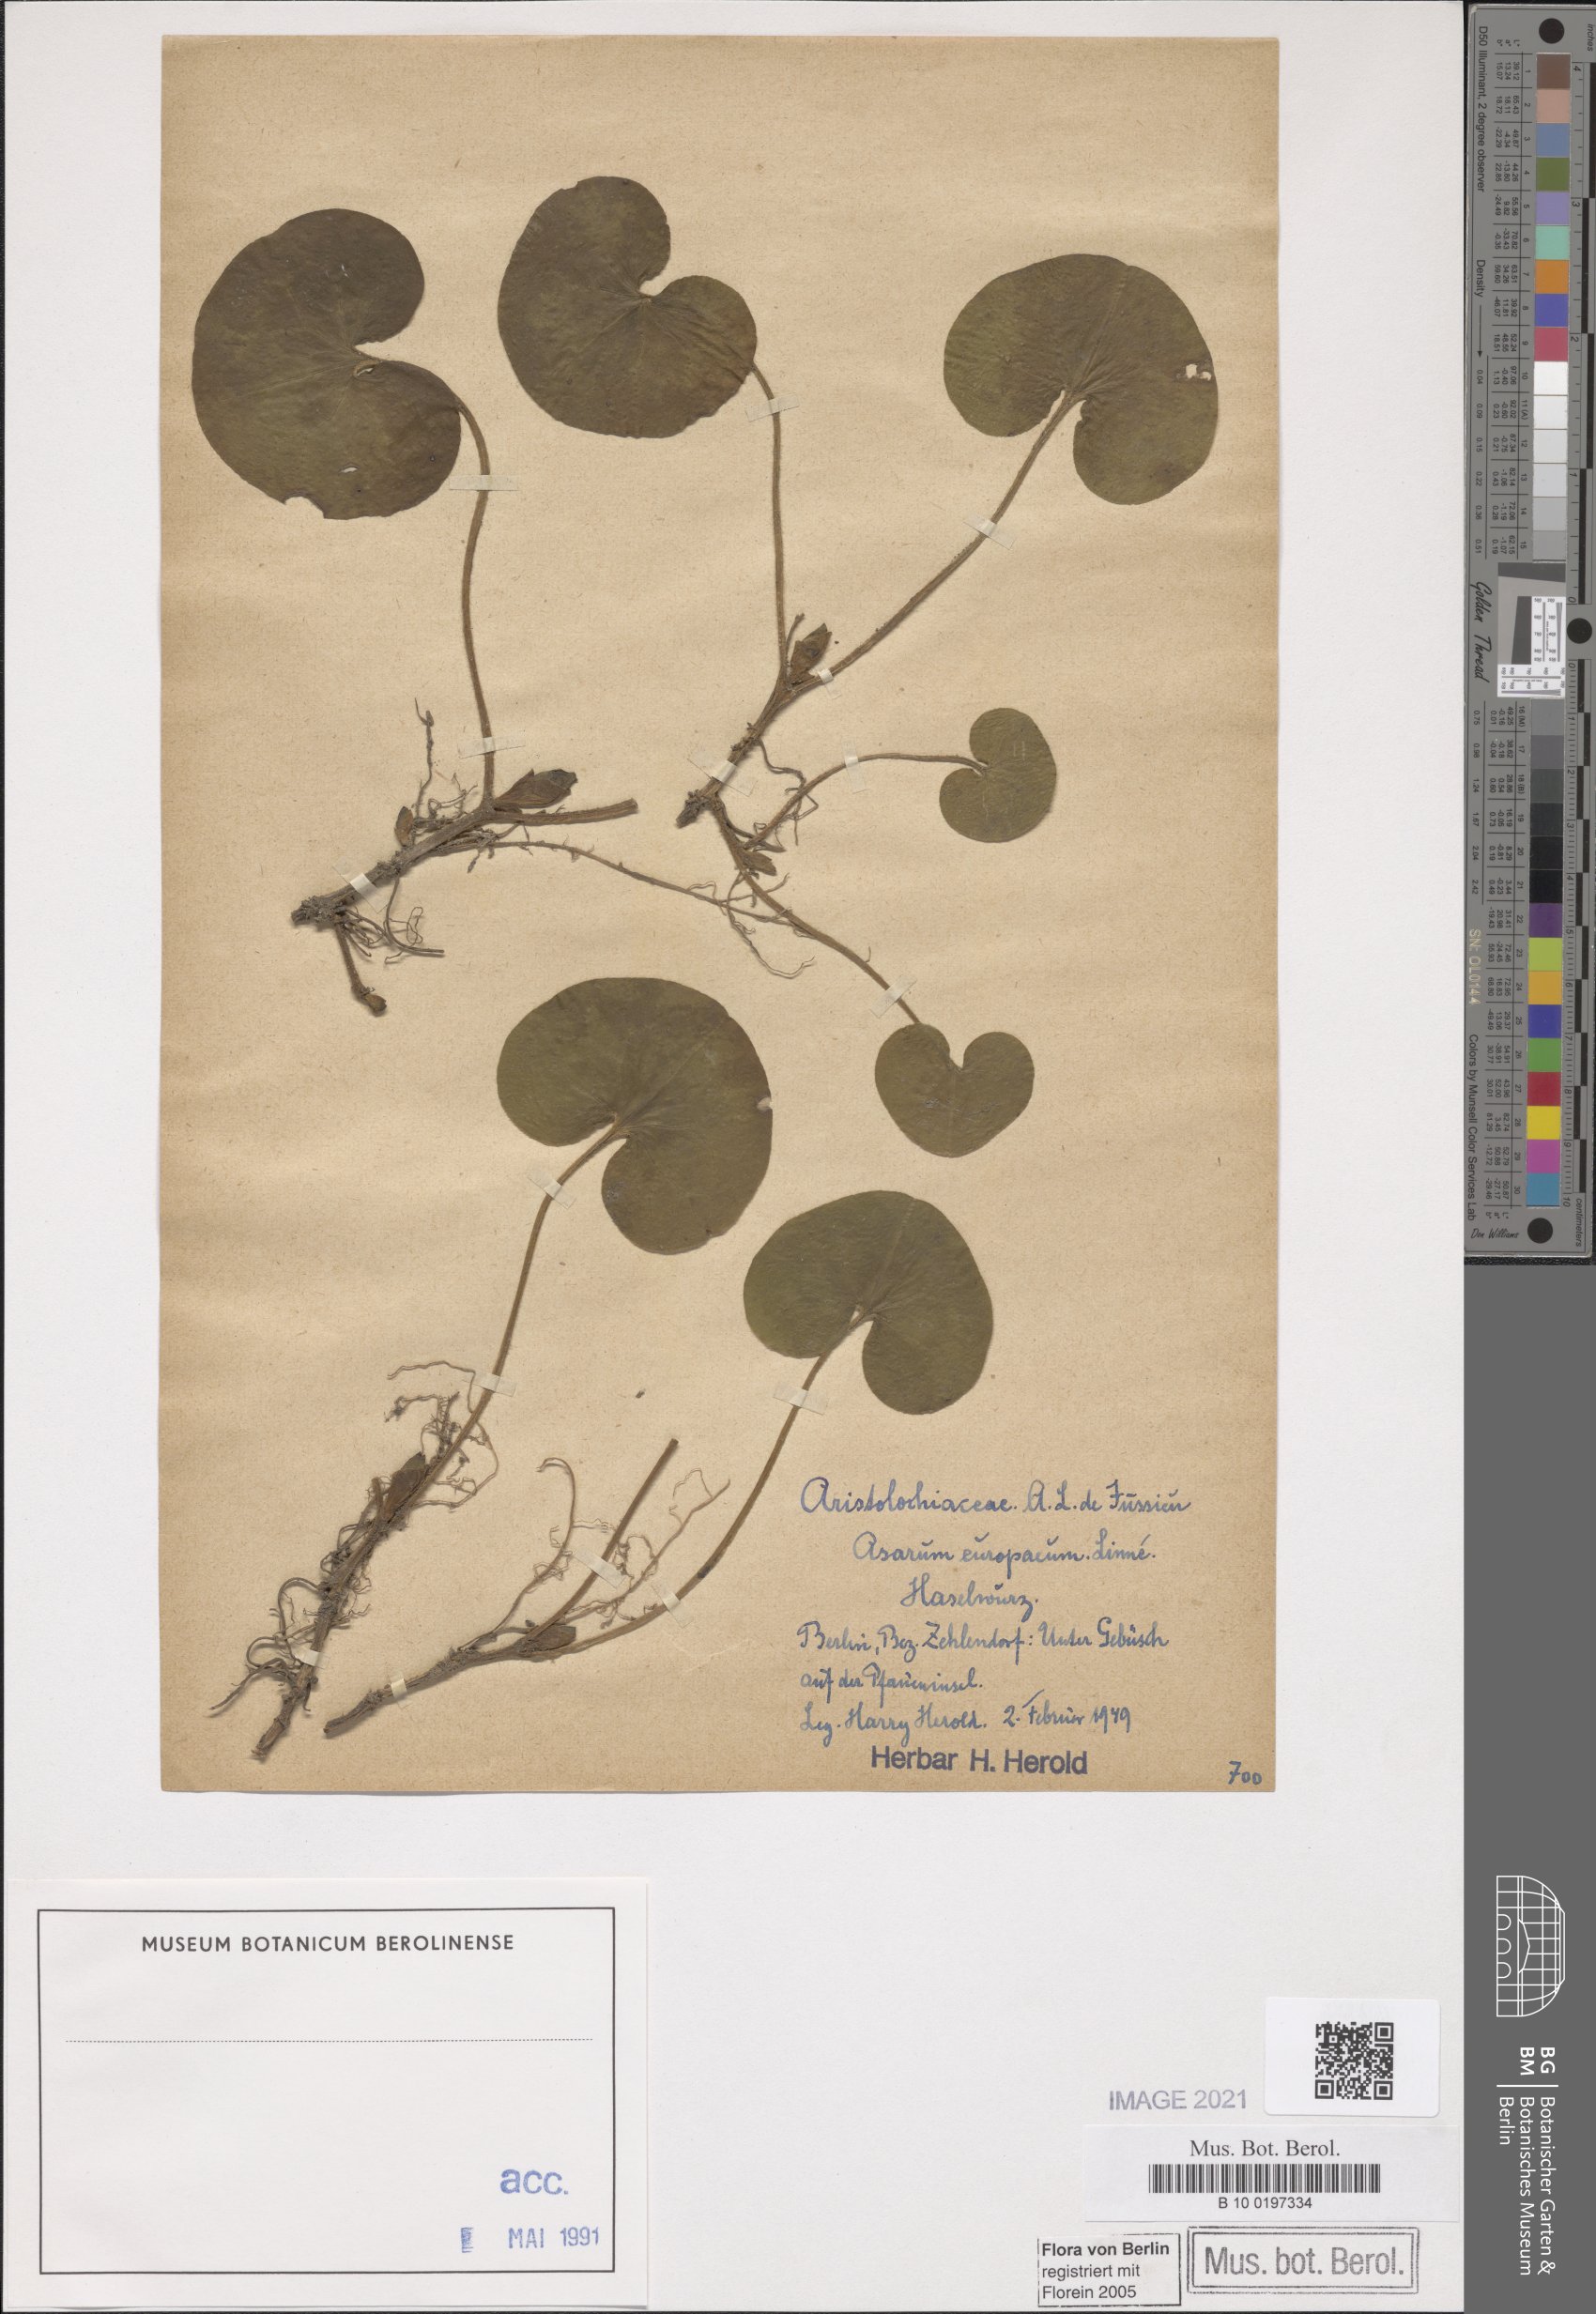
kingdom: Plantae
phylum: Tracheophyta
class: Magnoliopsida
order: Piperales
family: Aristolochiaceae
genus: Asarum
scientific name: Asarum europaeum
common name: Asarabacca
